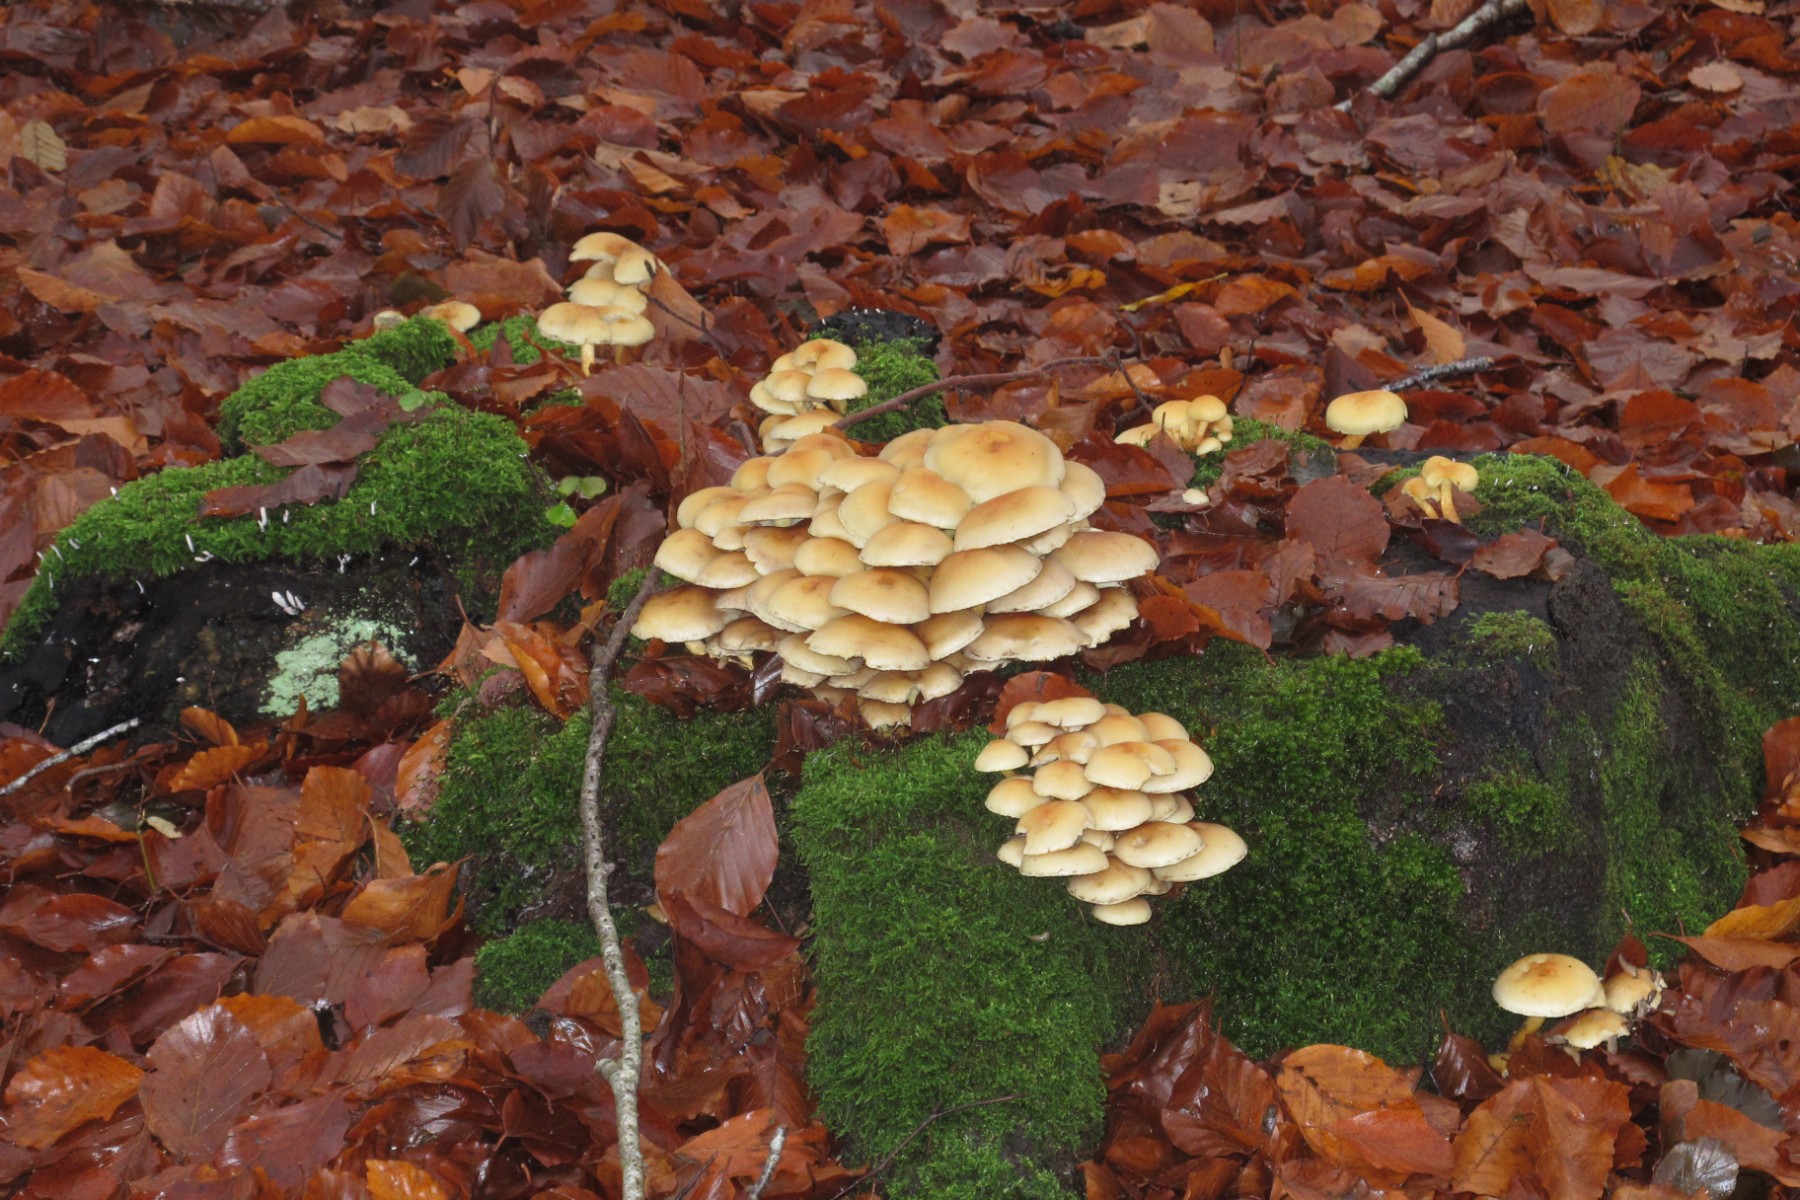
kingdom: Fungi
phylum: Basidiomycota
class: Agaricomycetes
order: Agaricales
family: Strophariaceae
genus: Hypholoma
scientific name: Hypholoma fasciculare
